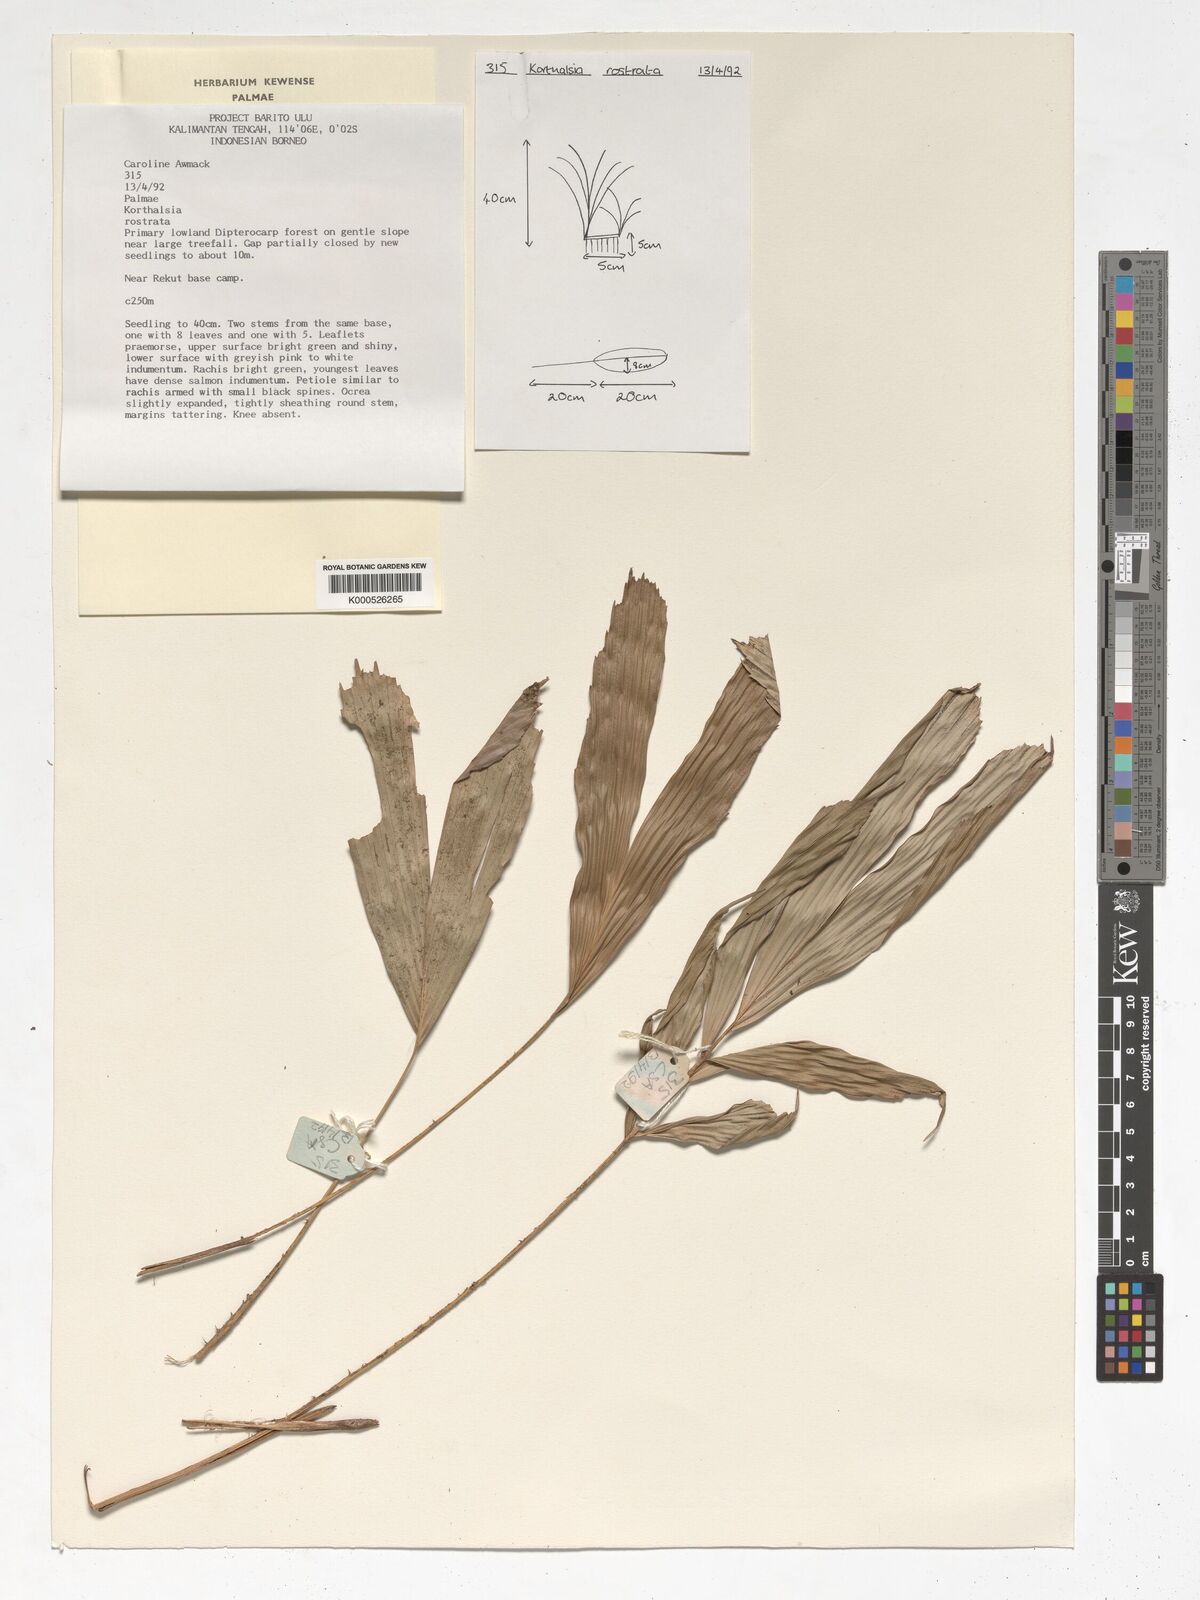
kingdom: Plantae
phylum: Tracheophyta
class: Liliopsida
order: Arecales
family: Arecaceae
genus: Korthalsia
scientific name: Korthalsia rostrata
